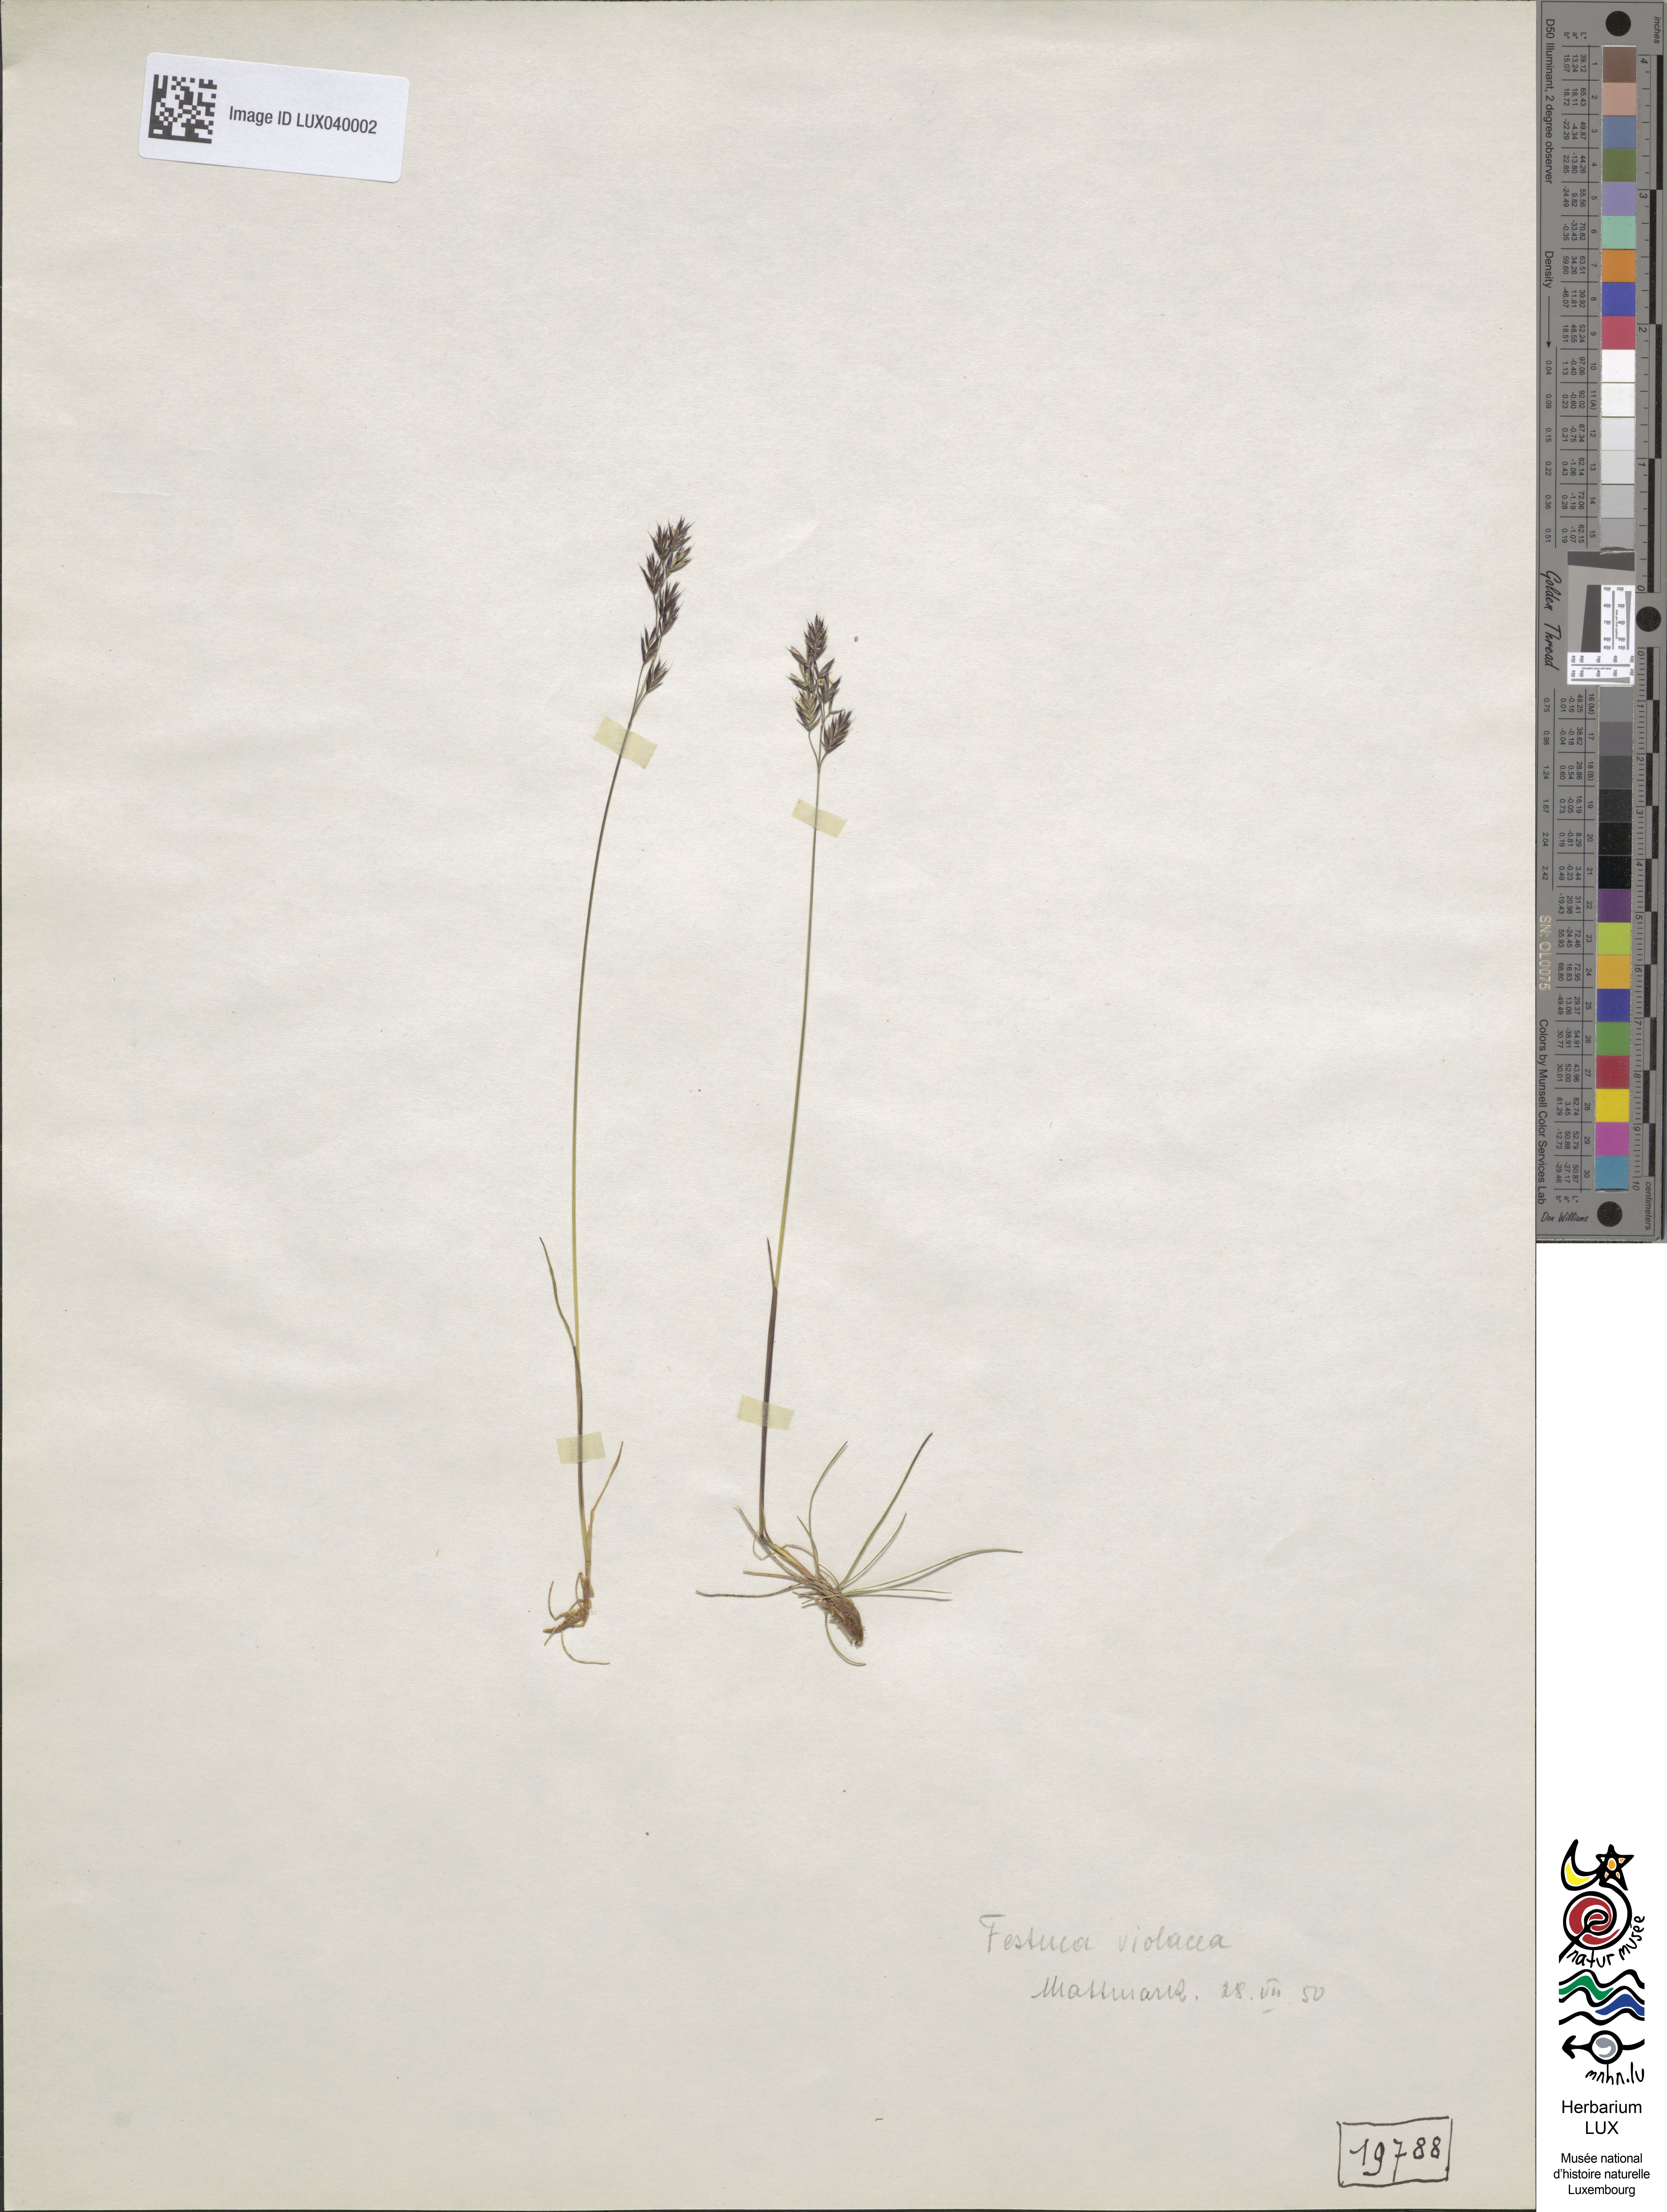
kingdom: Plantae
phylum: Tracheophyta
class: Liliopsida
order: Poales
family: Poaceae
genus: Festuca
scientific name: Festuca violacea
